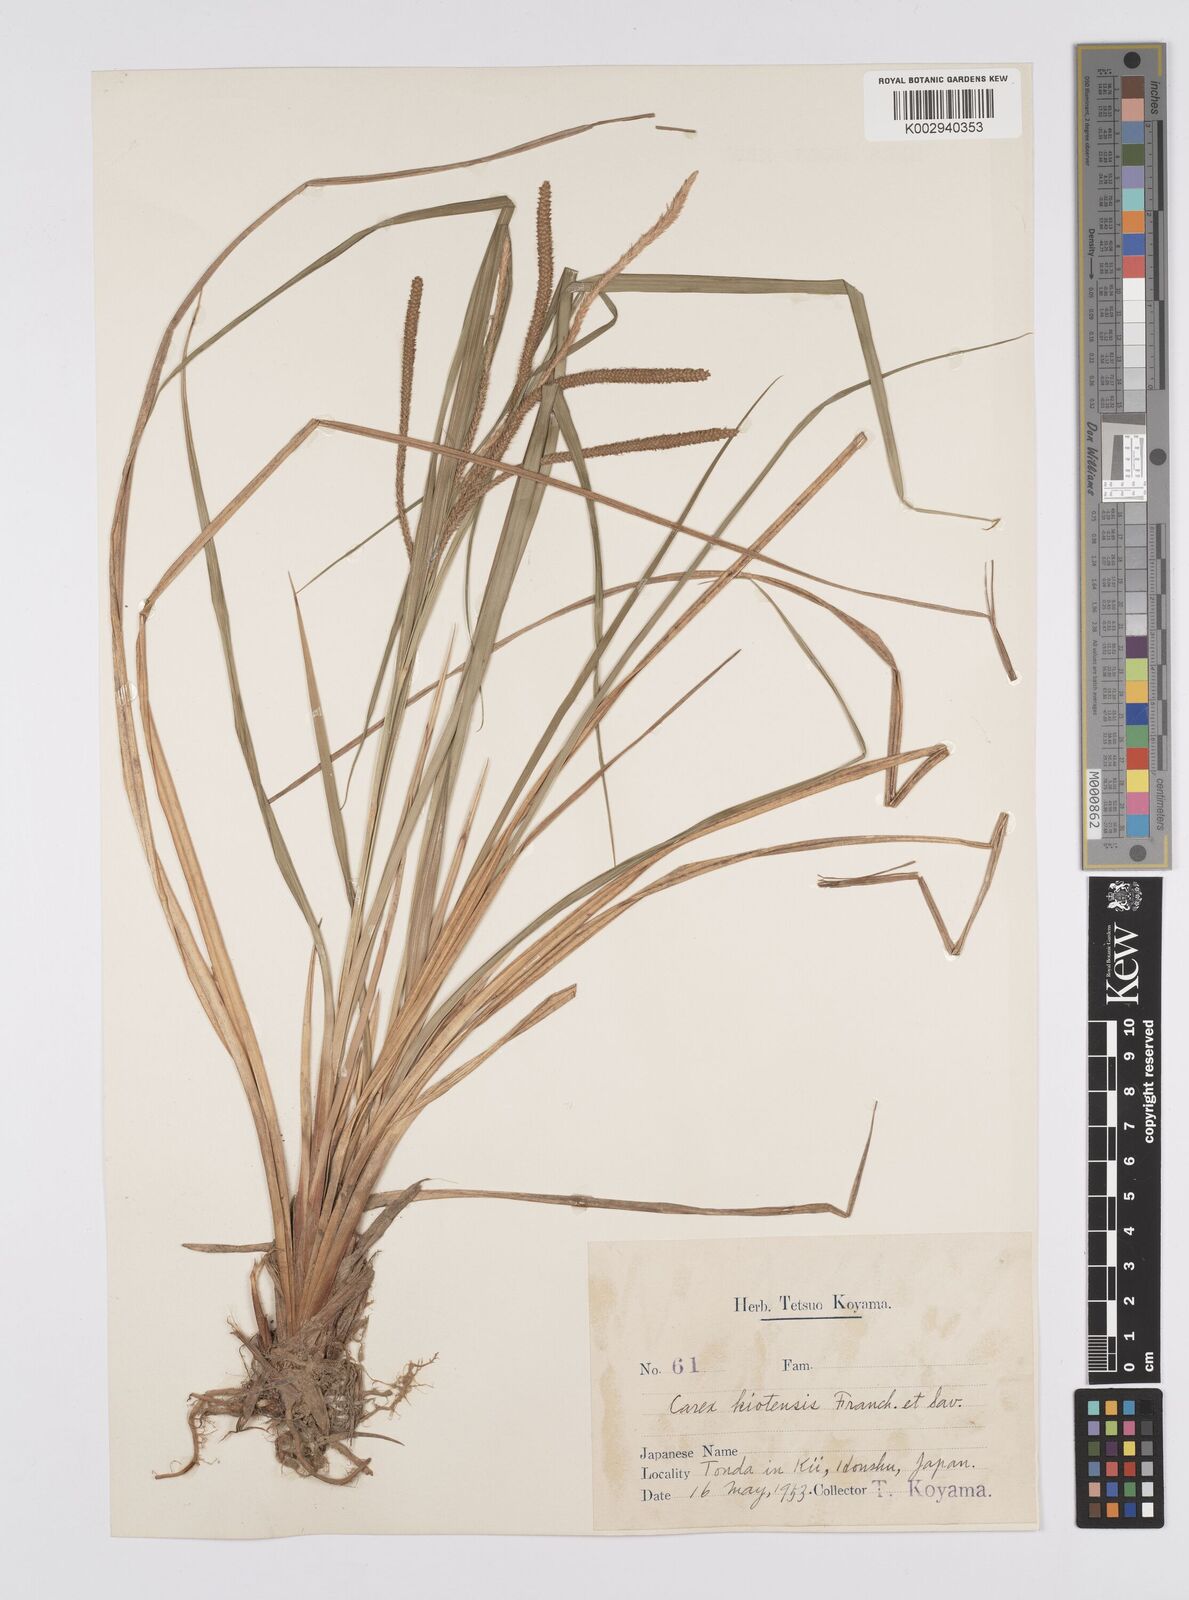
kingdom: Plantae
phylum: Tracheophyta
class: Liliopsida
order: Poales
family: Cyperaceae
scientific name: Cyperaceae
